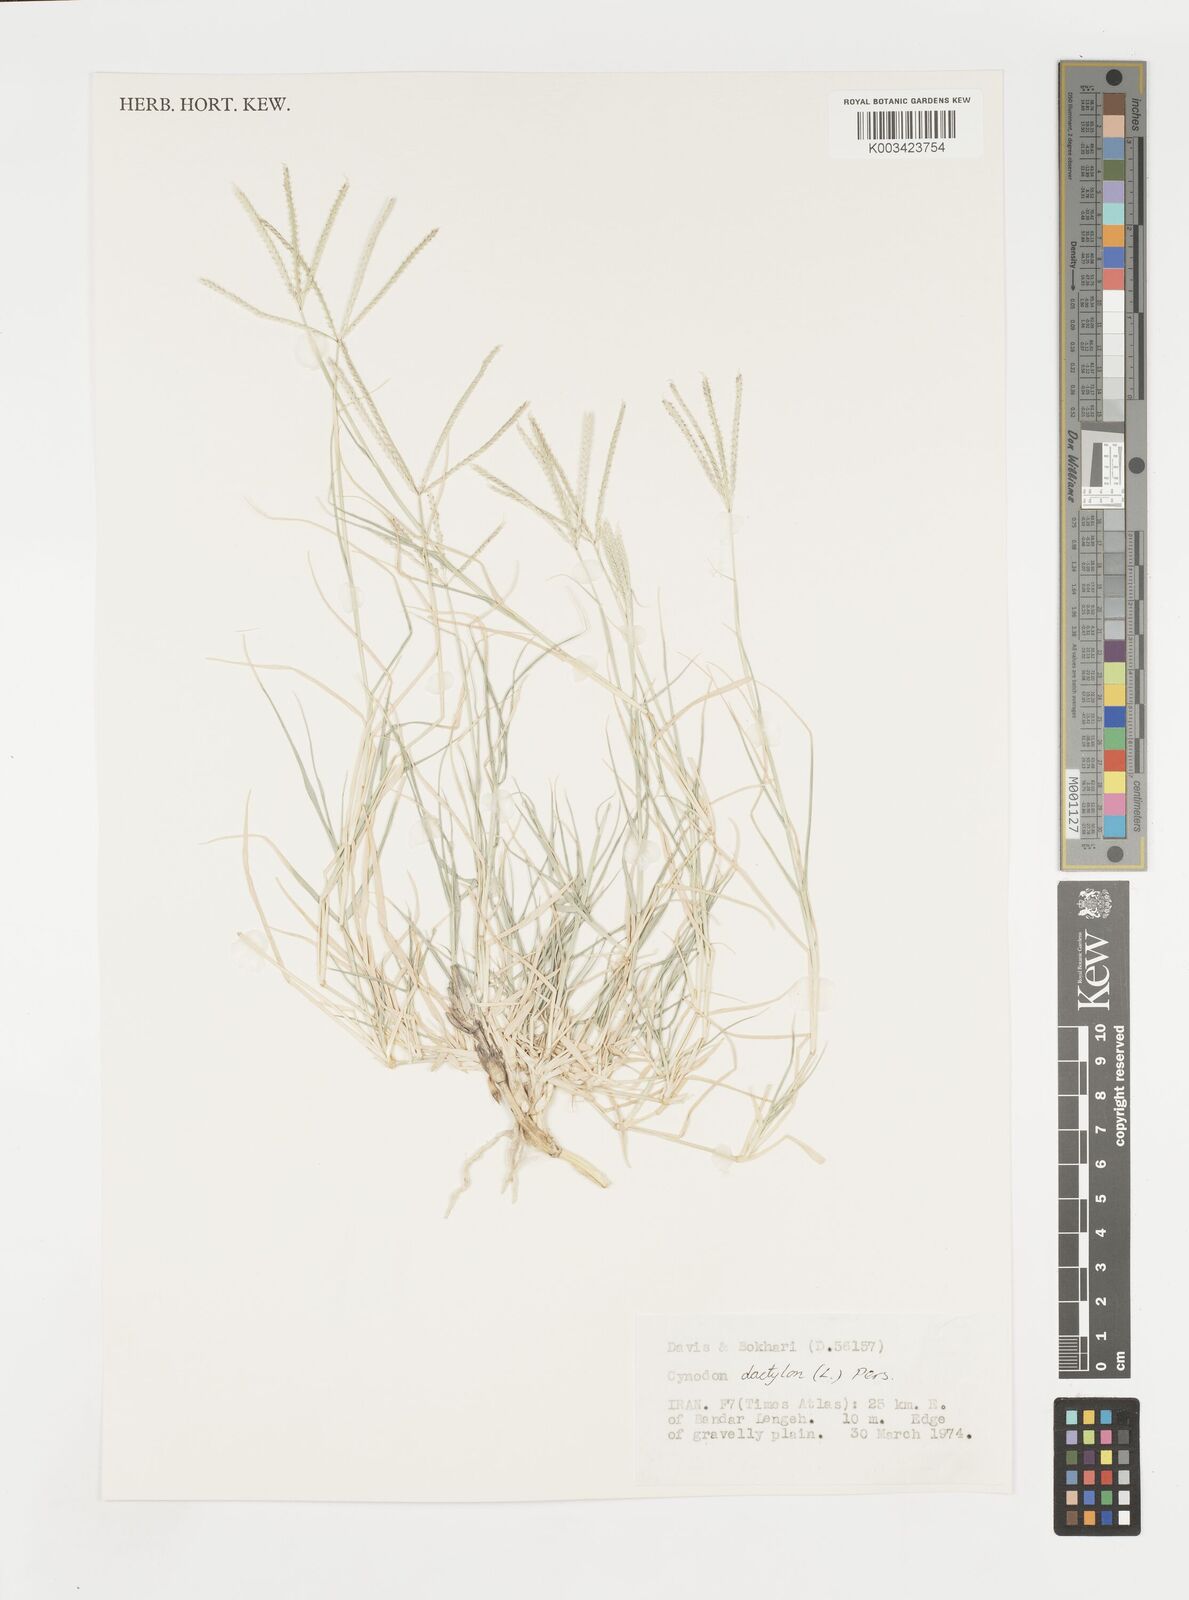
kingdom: Plantae
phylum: Tracheophyta
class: Liliopsida
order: Poales
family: Poaceae
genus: Cynodon
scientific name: Cynodon dactylon
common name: Bermuda grass
